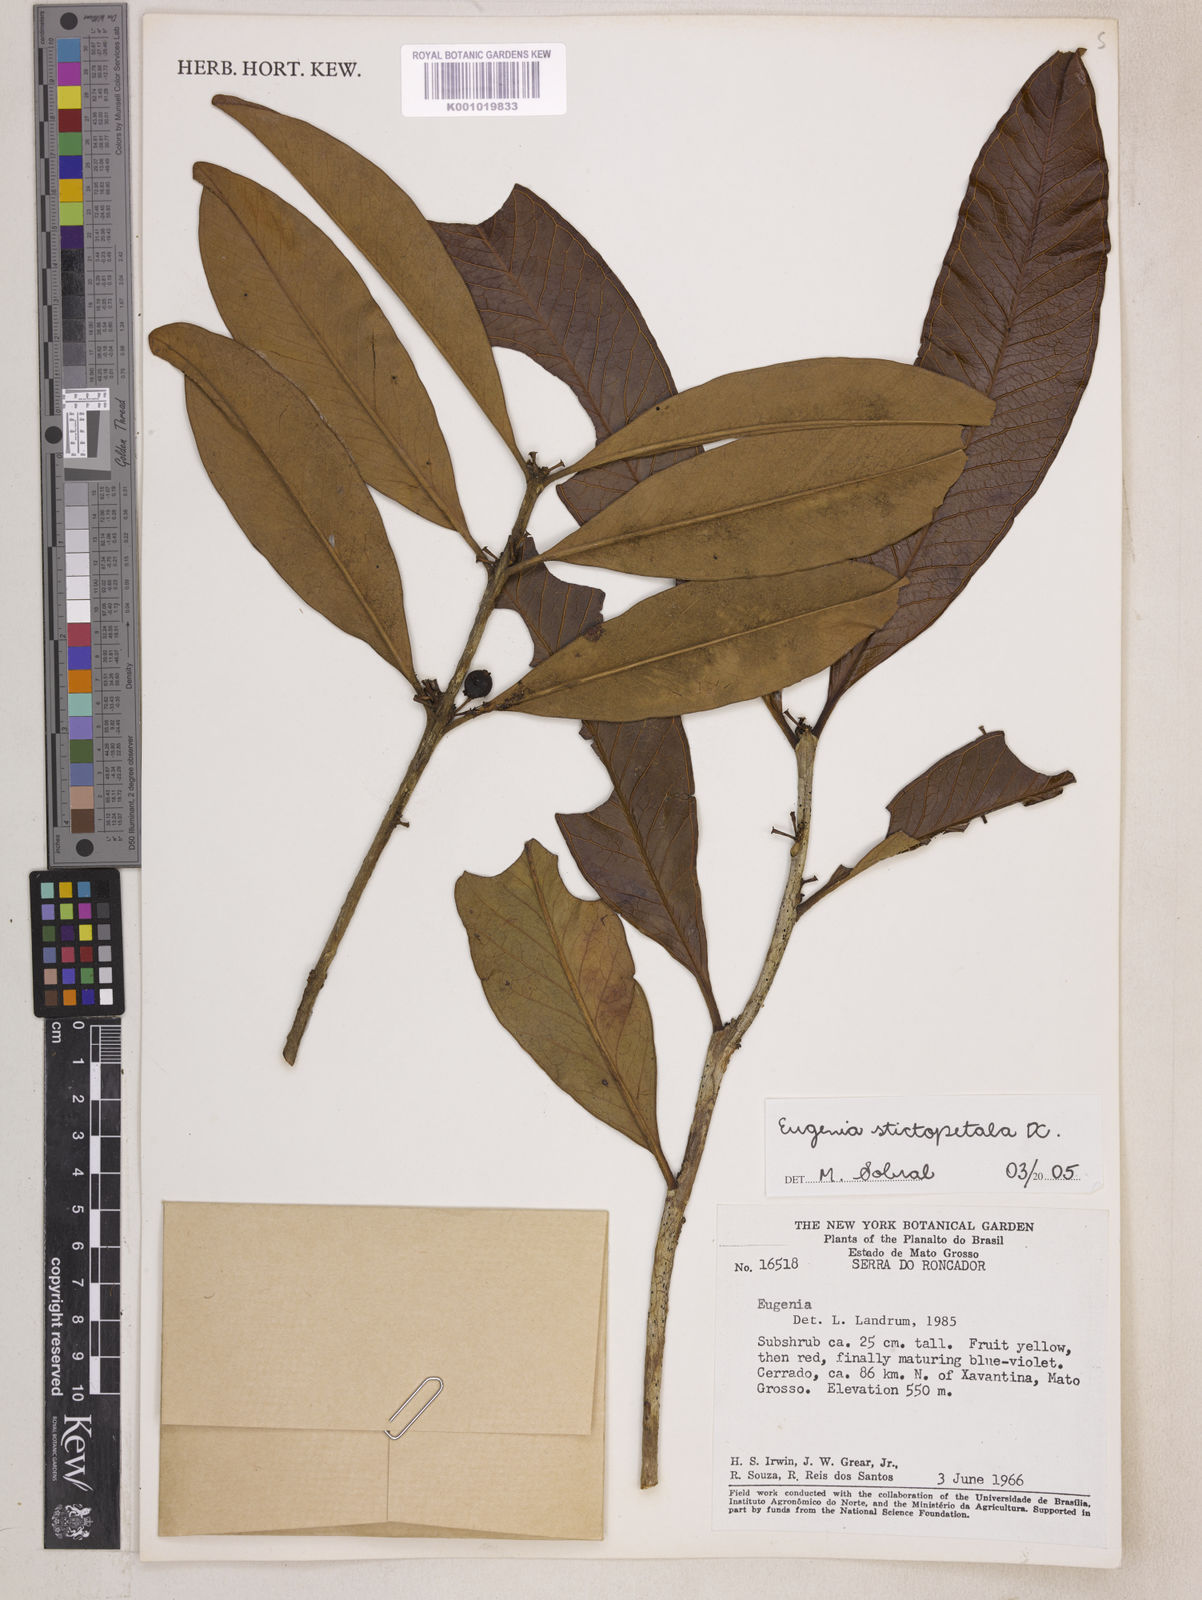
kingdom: Plantae
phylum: Tracheophyta
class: Magnoliopsida
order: Myrtales
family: Myrtaceae
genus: Eugenia
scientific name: Eugenia stictopetala
